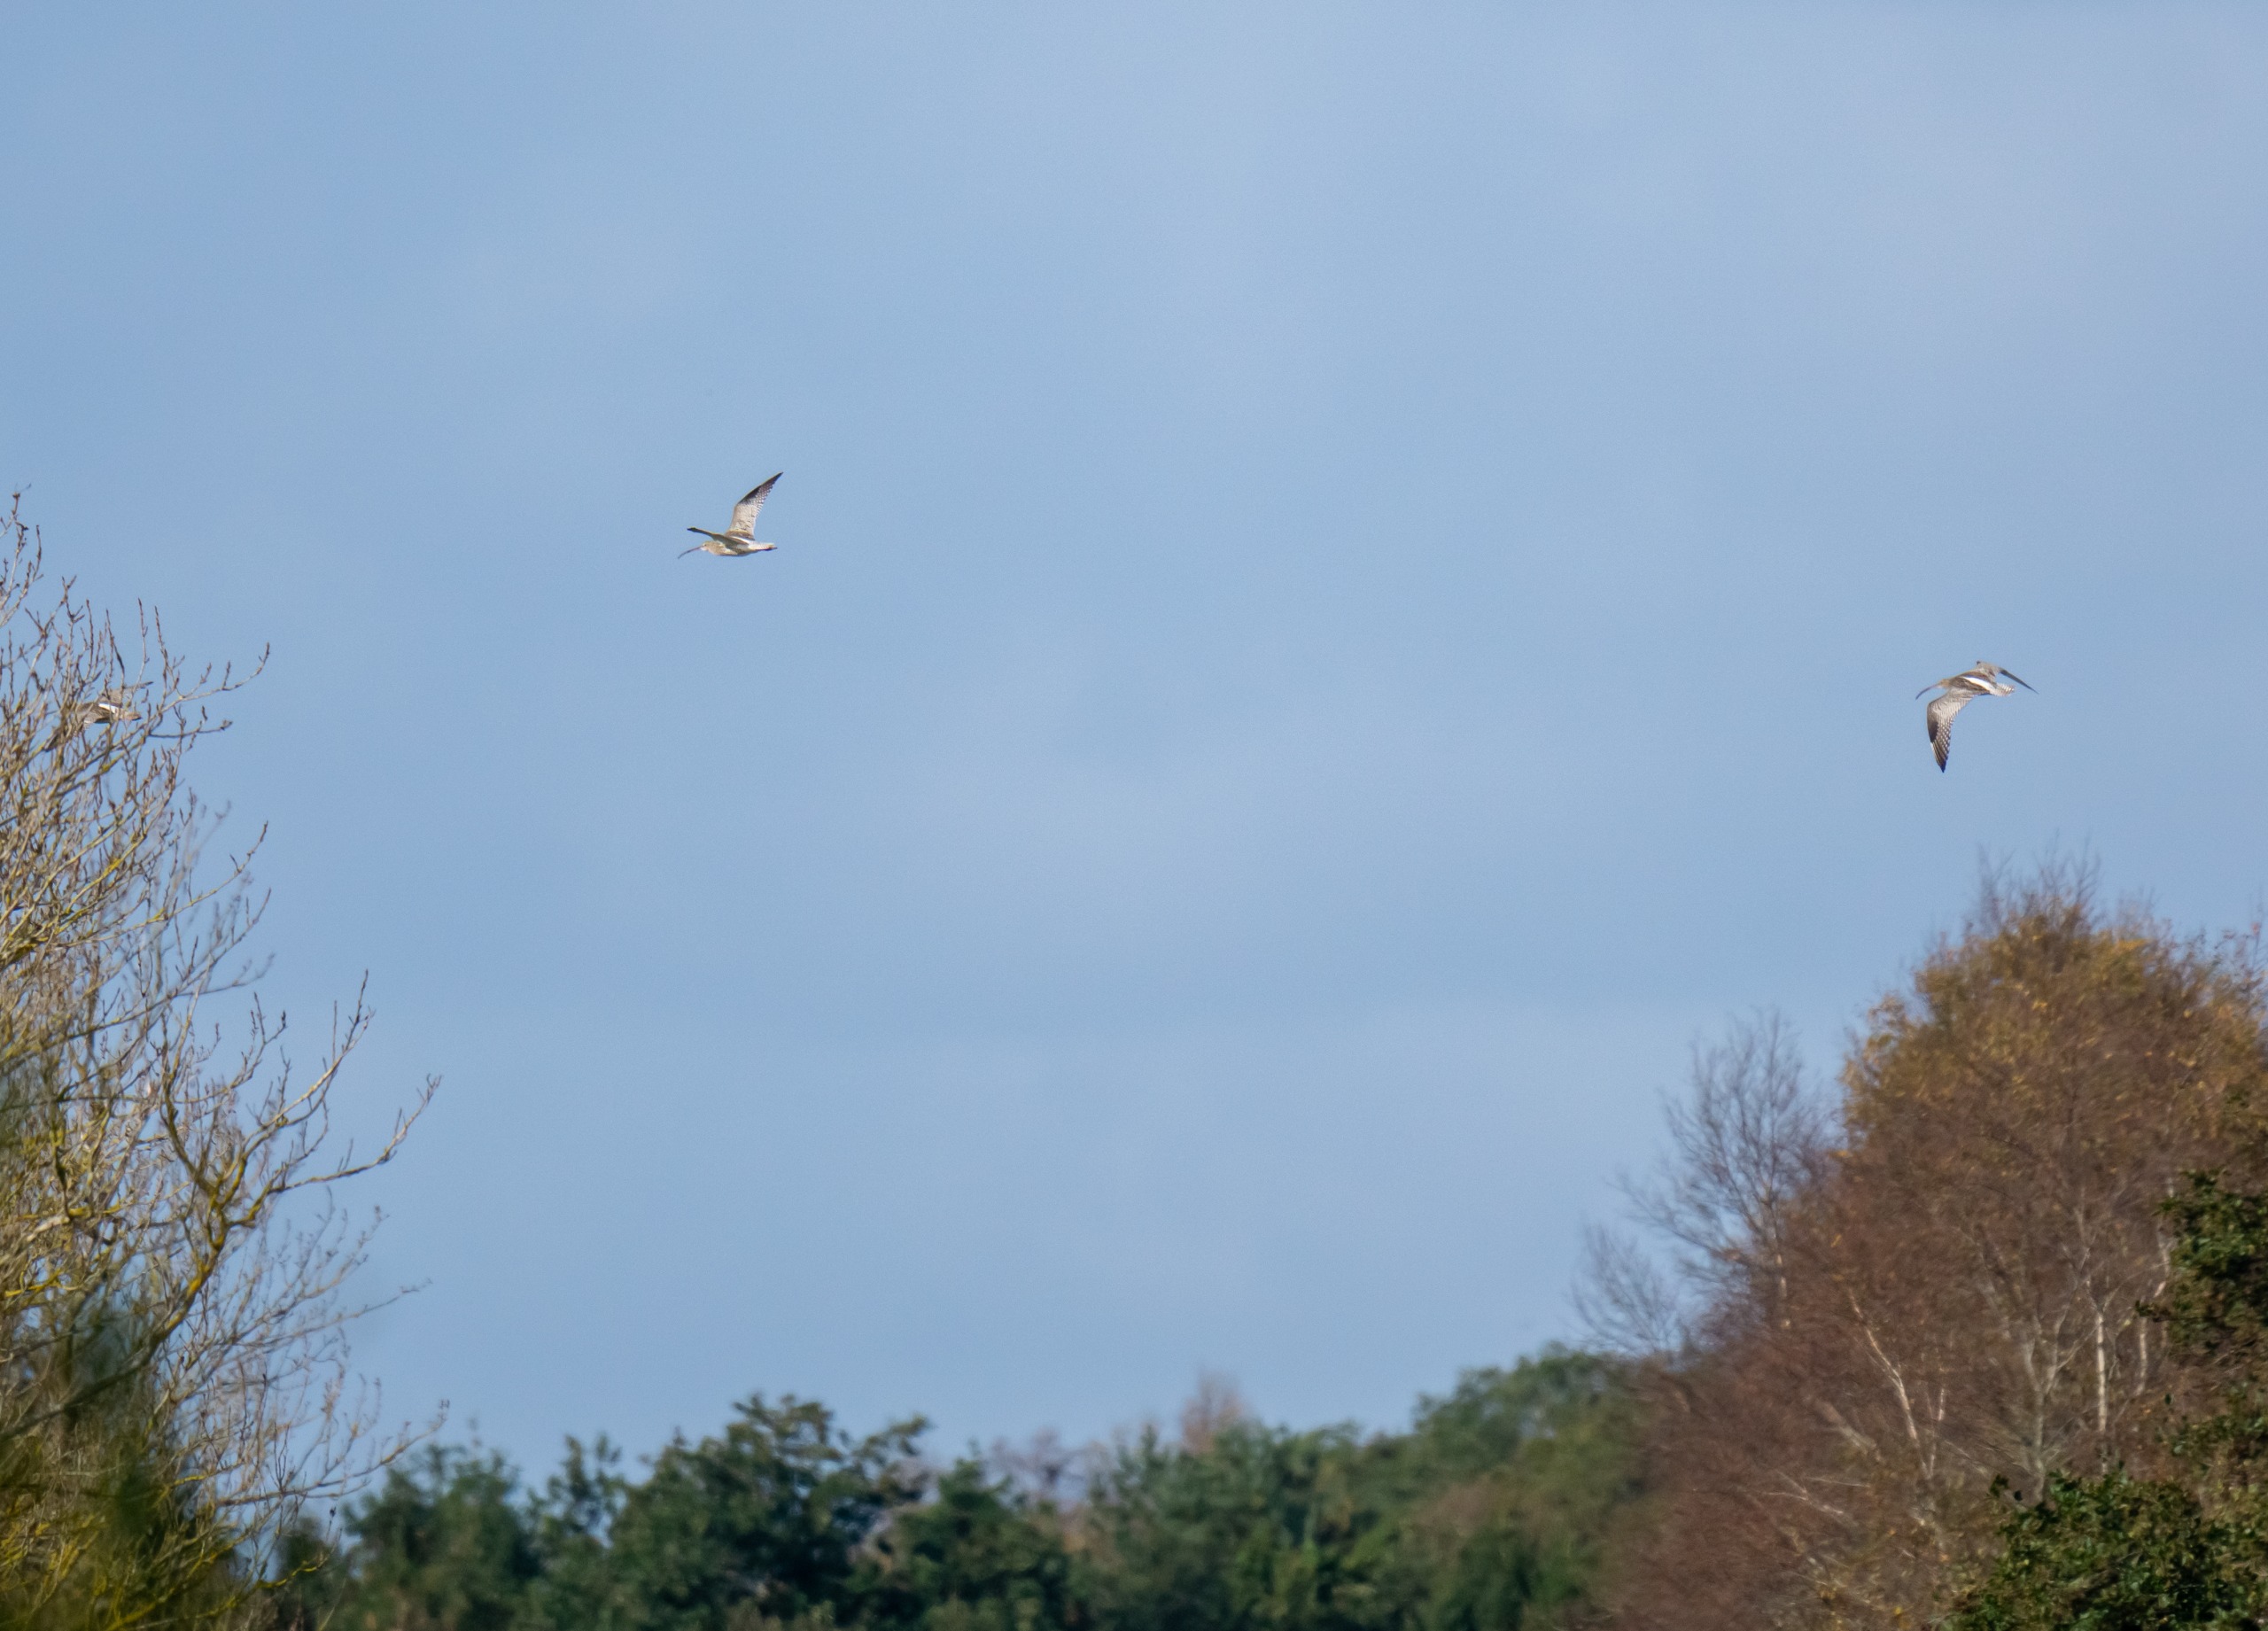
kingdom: Animalia
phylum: Chordata
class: Aves
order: Charadriiformes
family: Scolopacidae
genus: Numenius
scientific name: Numenius arquata
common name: Storspove
